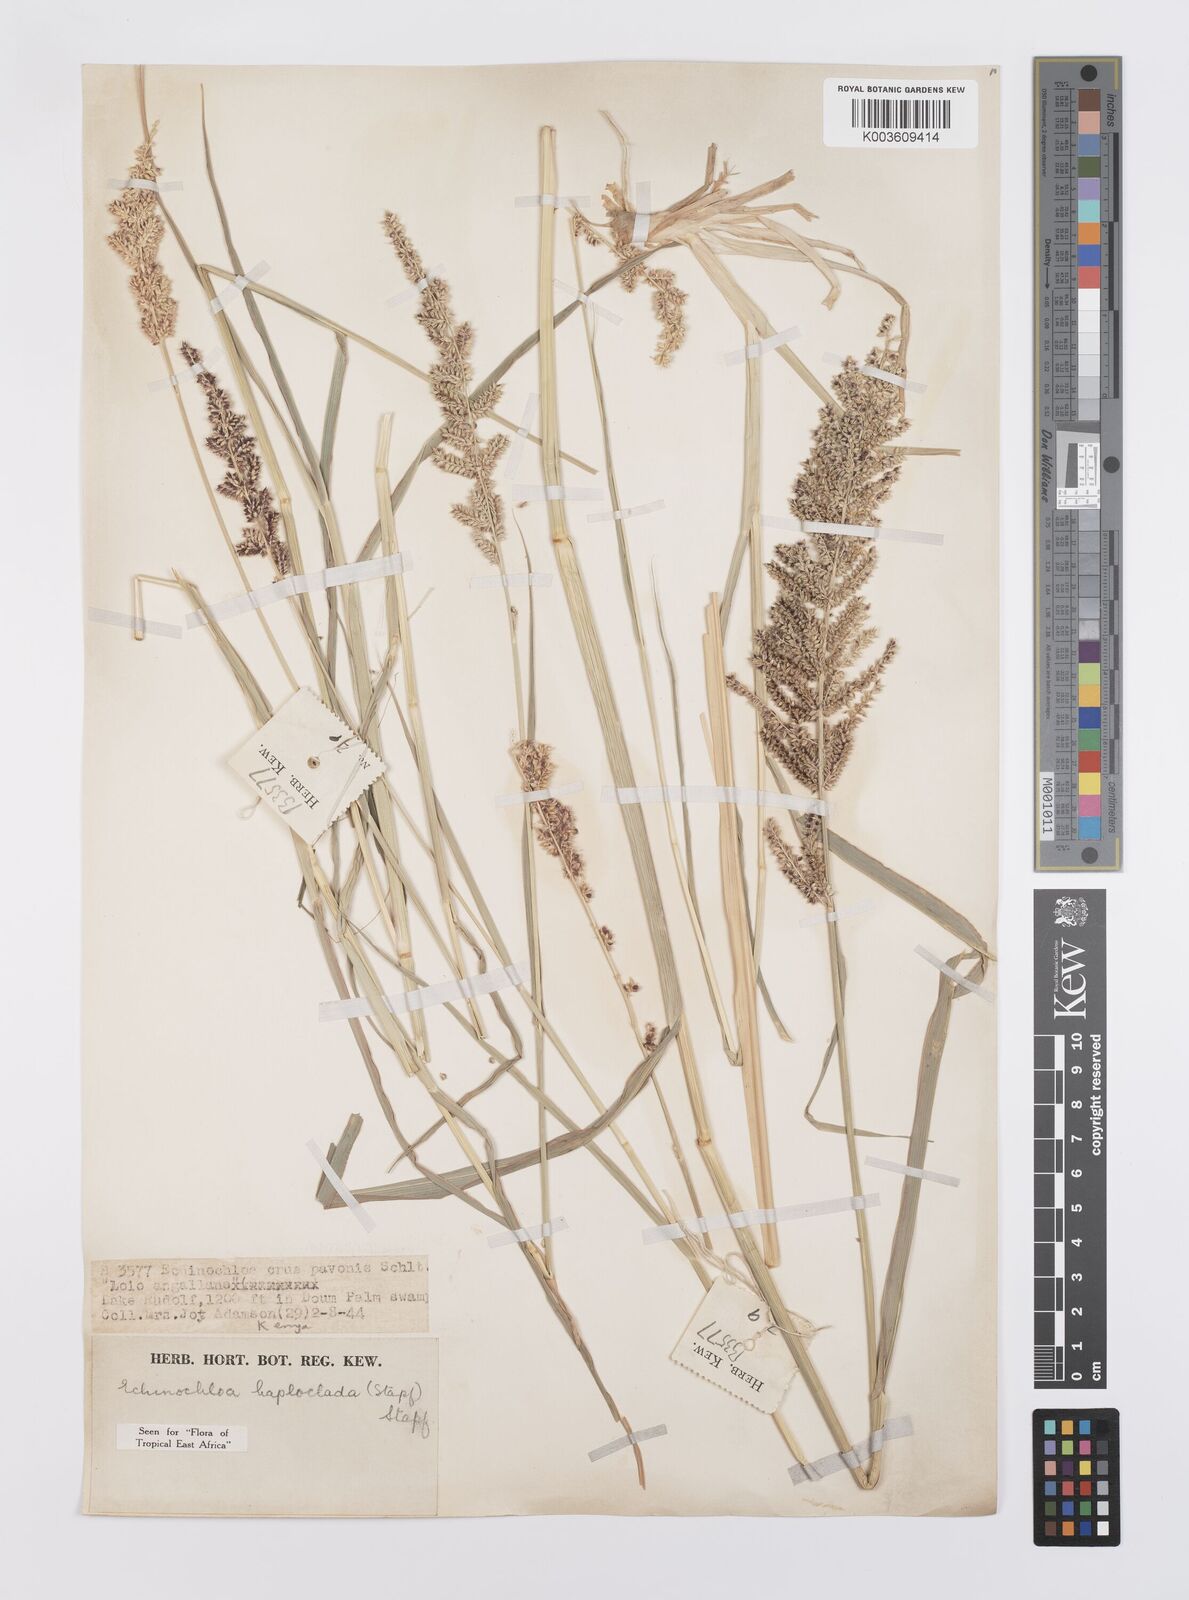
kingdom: Plantae
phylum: Tracheophyta
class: Liliopsida
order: Poales
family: Poaceae
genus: Echinochloa
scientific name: Echinochloa haploclada
